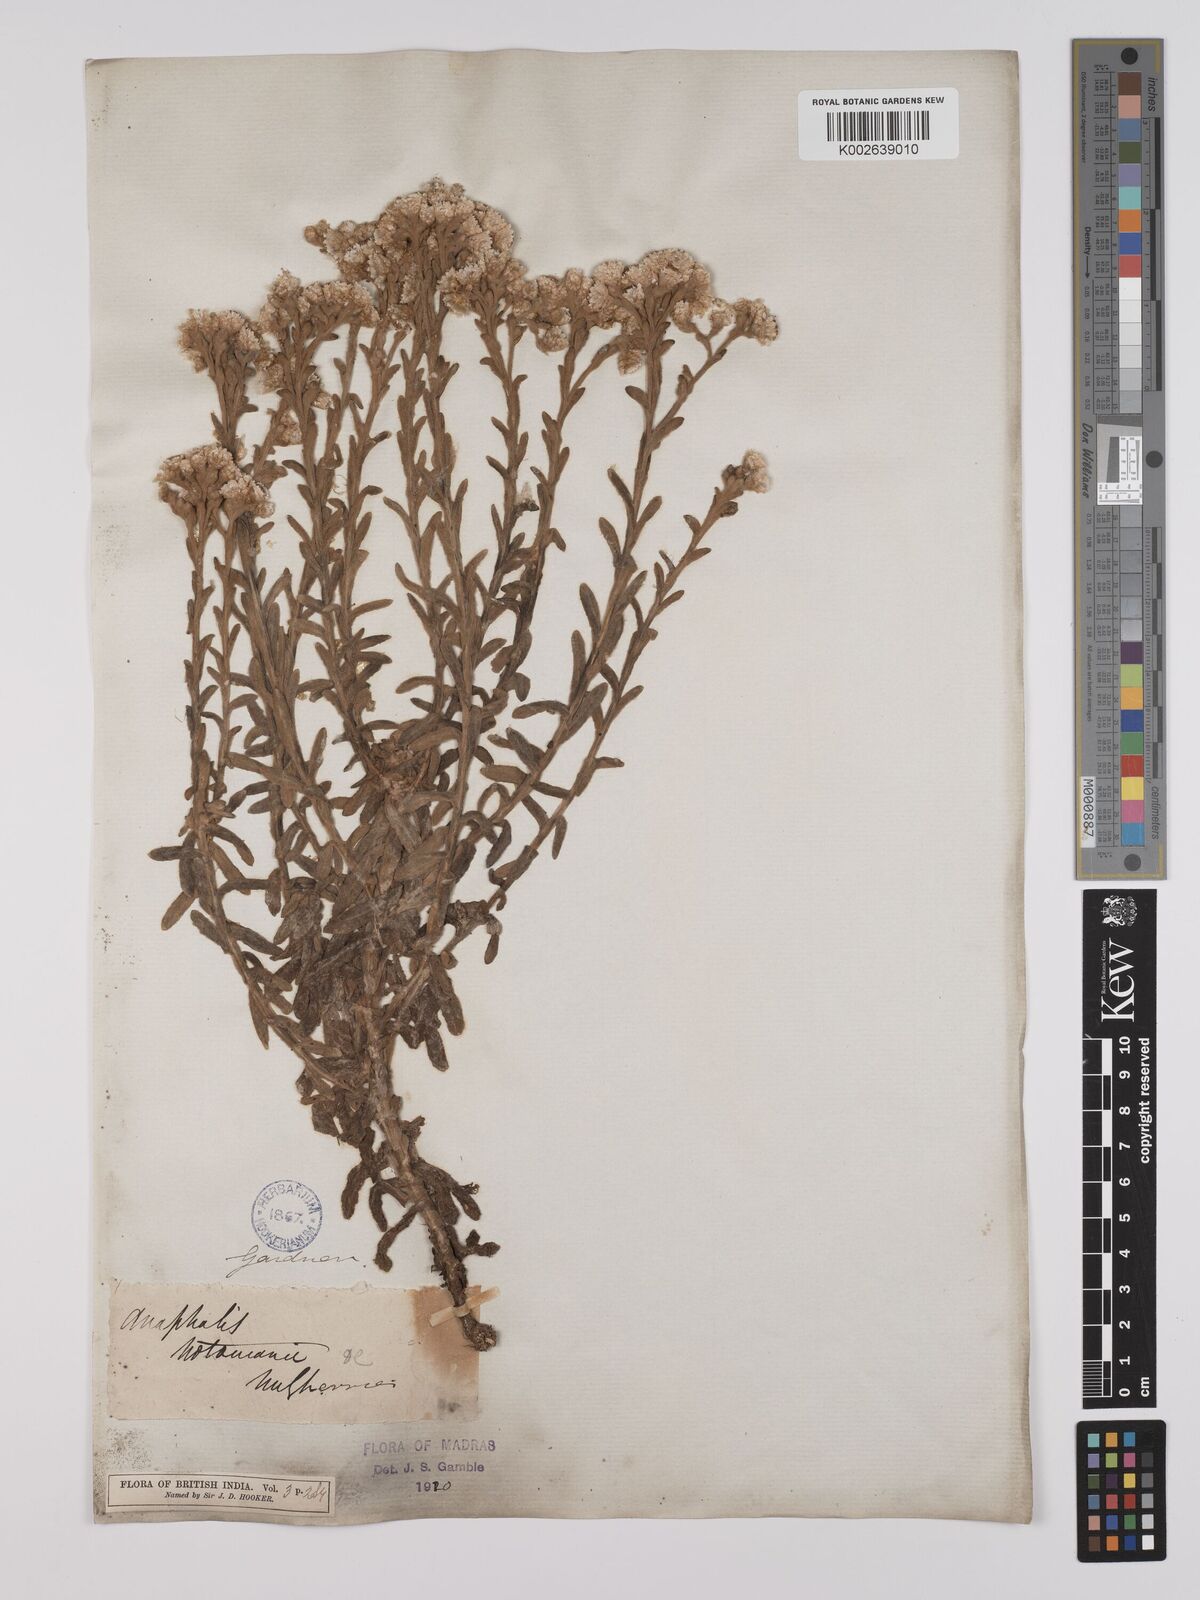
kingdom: Plantae
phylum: Tracheophyta
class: Magnoliopsida
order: Asterales
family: Asteraceae
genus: Anaphalis
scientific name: Anaphalis notoniana
